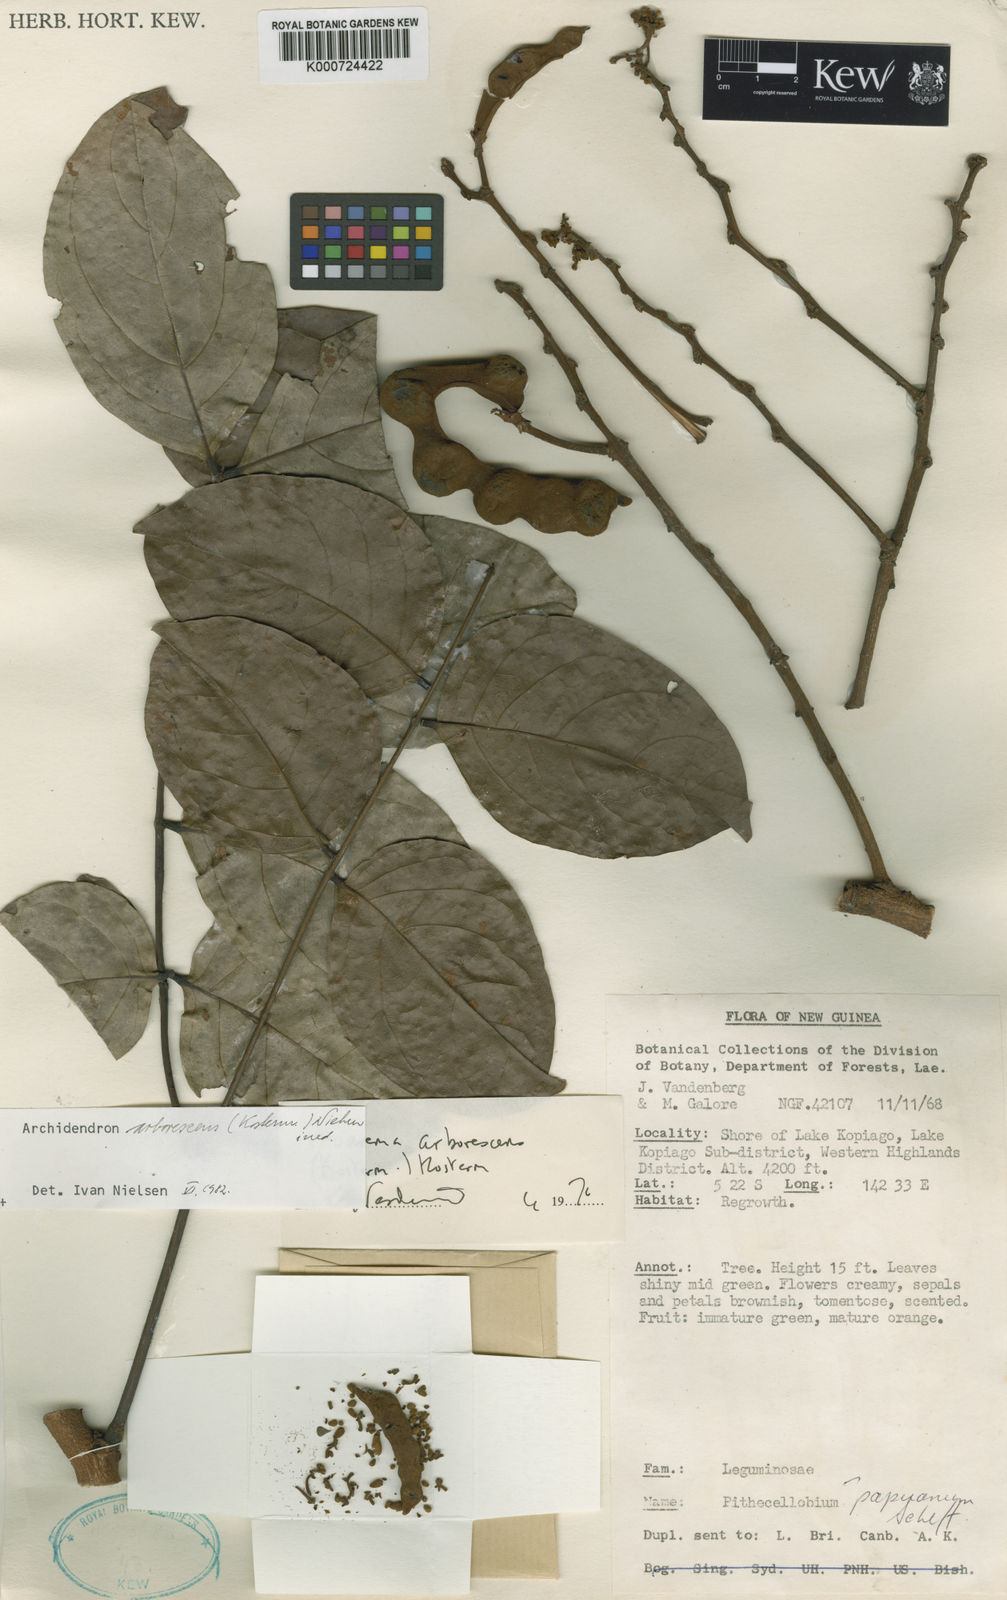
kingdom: Plantae
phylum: Tracheophyta
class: Magnoliopsida
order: Fabales
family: Fabaceae
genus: Archidendron
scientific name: Archidendron arborescens
